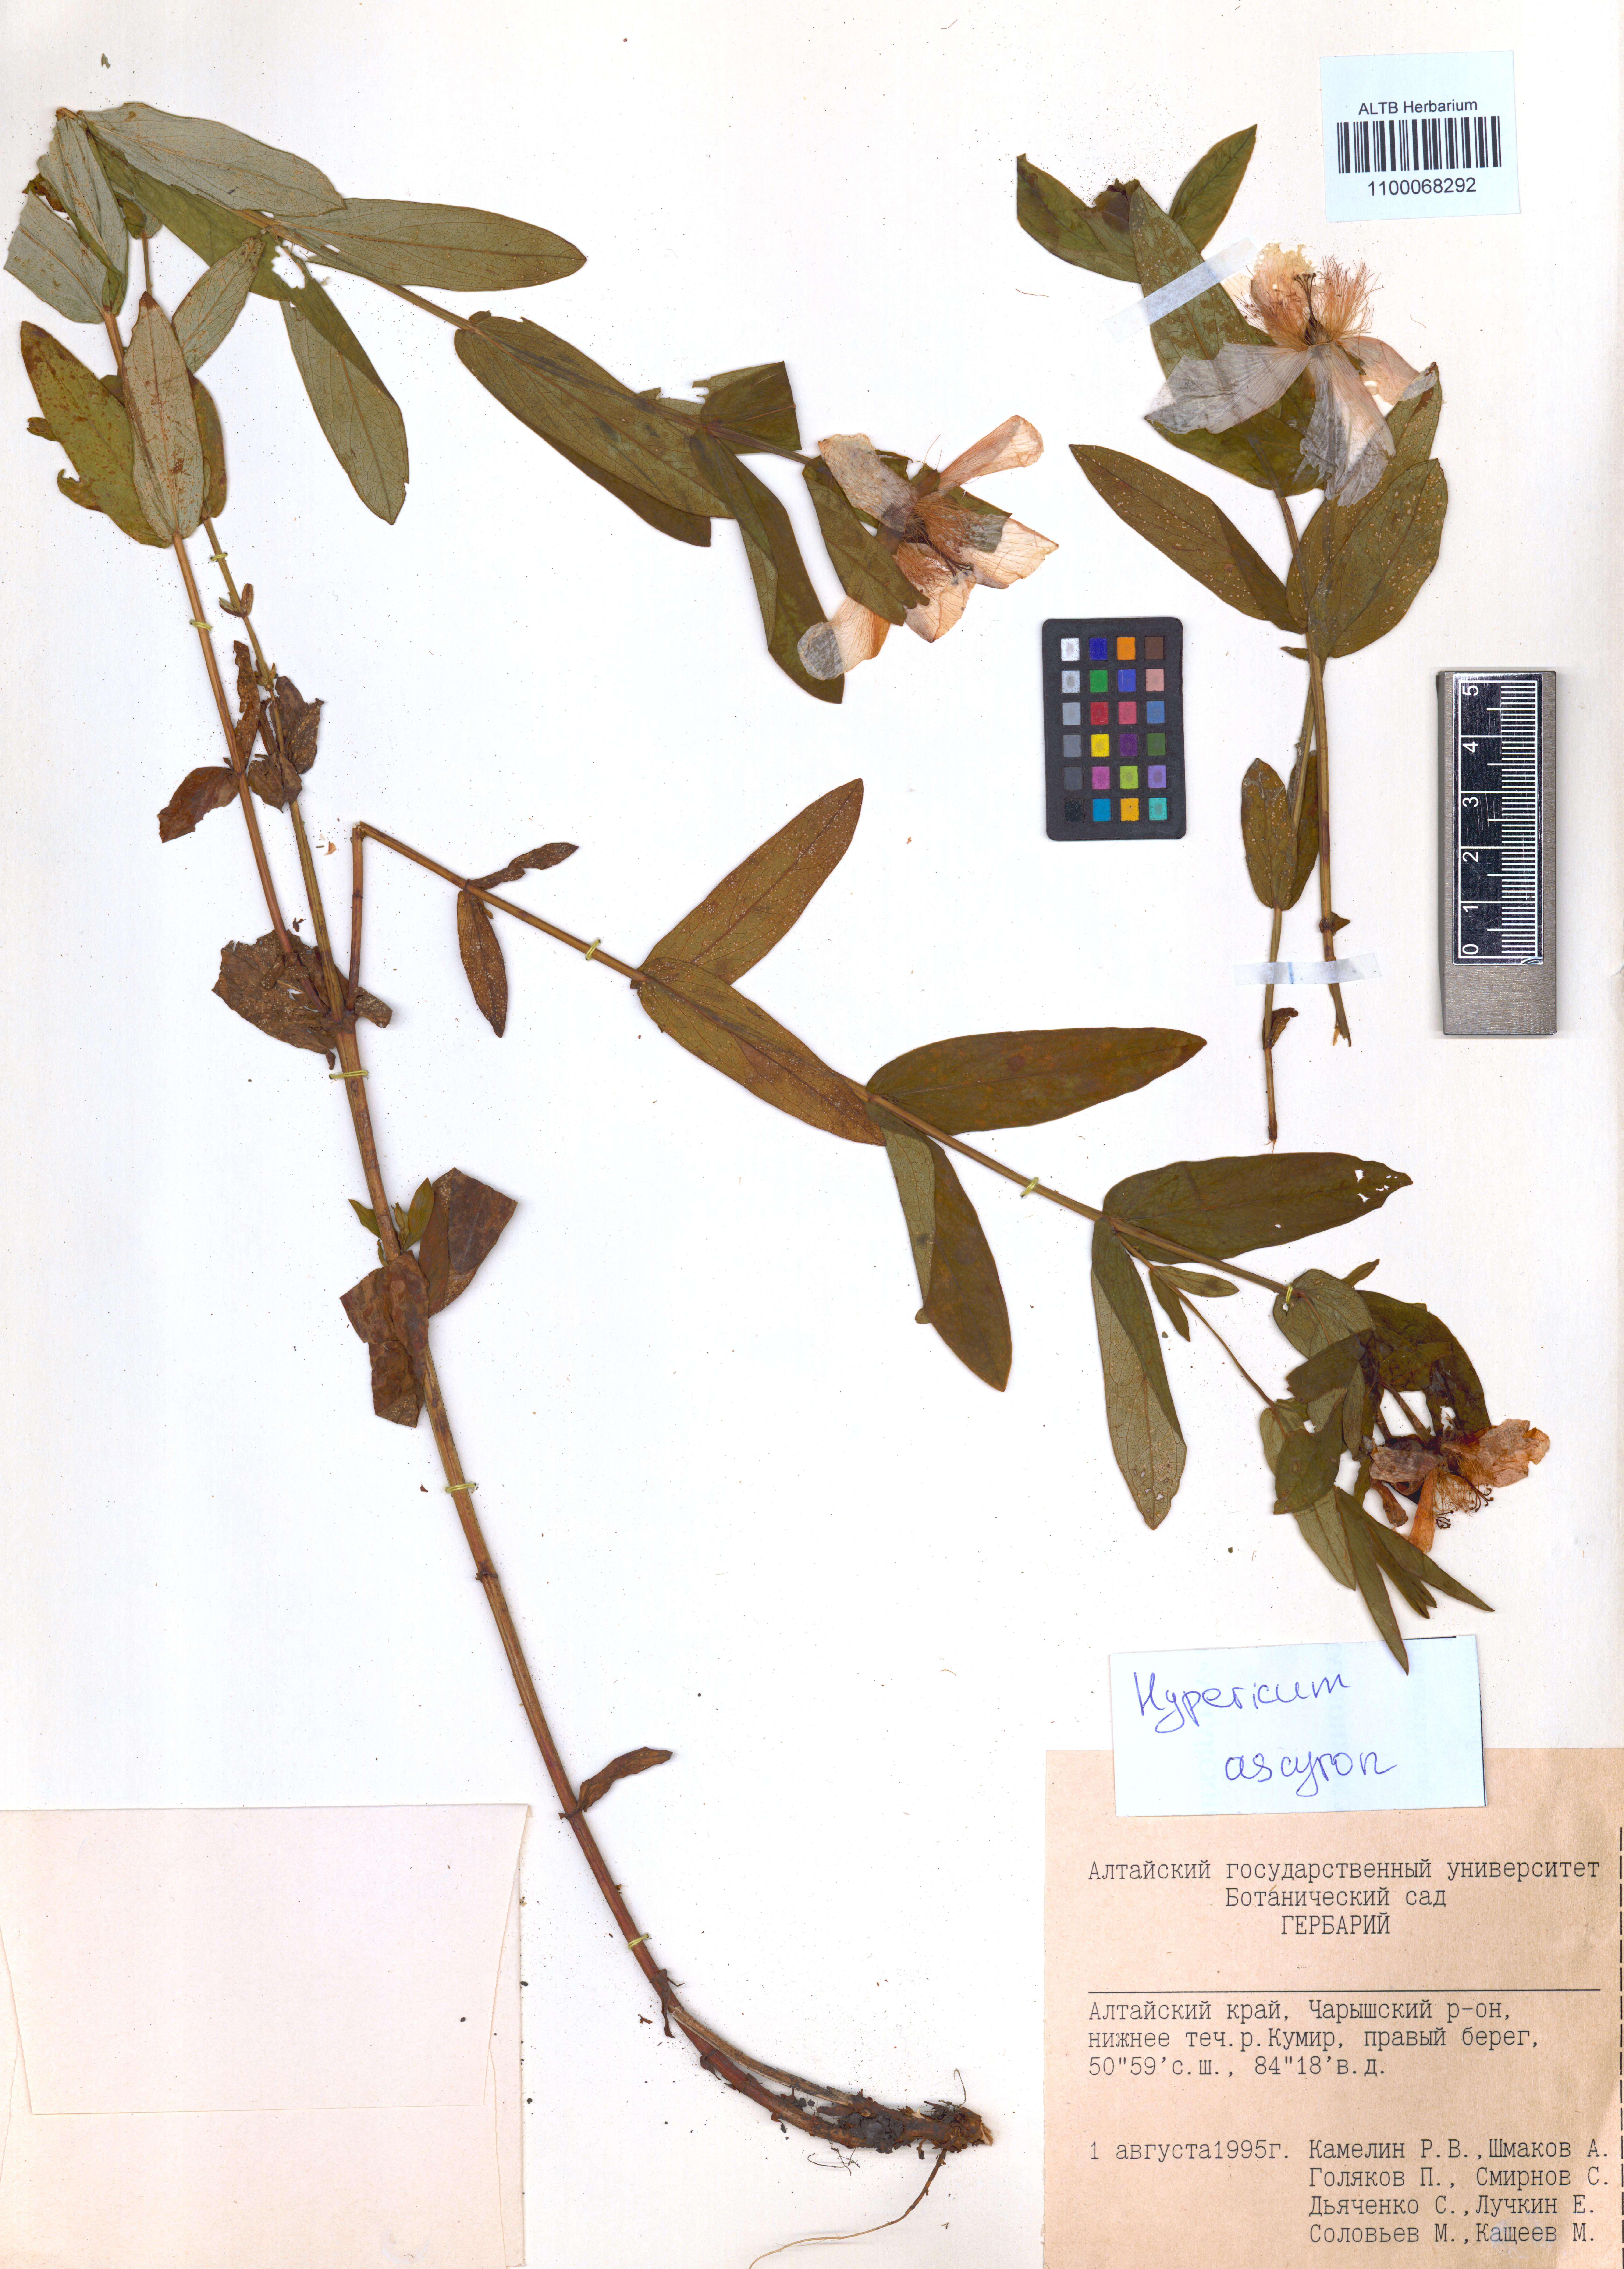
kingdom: Plantae
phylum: Tracheophyta
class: Magnoliopsida
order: Malpighiales
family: Hypericaceae
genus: Hypericum
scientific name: Hypericum ascyron
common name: Giant st. john's-wort
